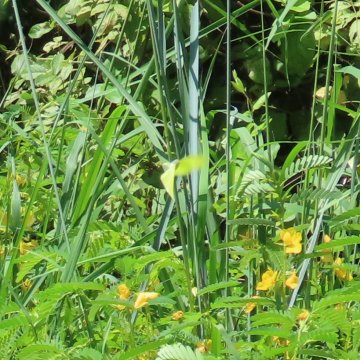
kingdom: Animalia
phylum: Arthropoda
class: Insecta
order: Lepidoptera
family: Pieridae
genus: Phoebis
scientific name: Phoebis sennae
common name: Cloudless Sulphur
